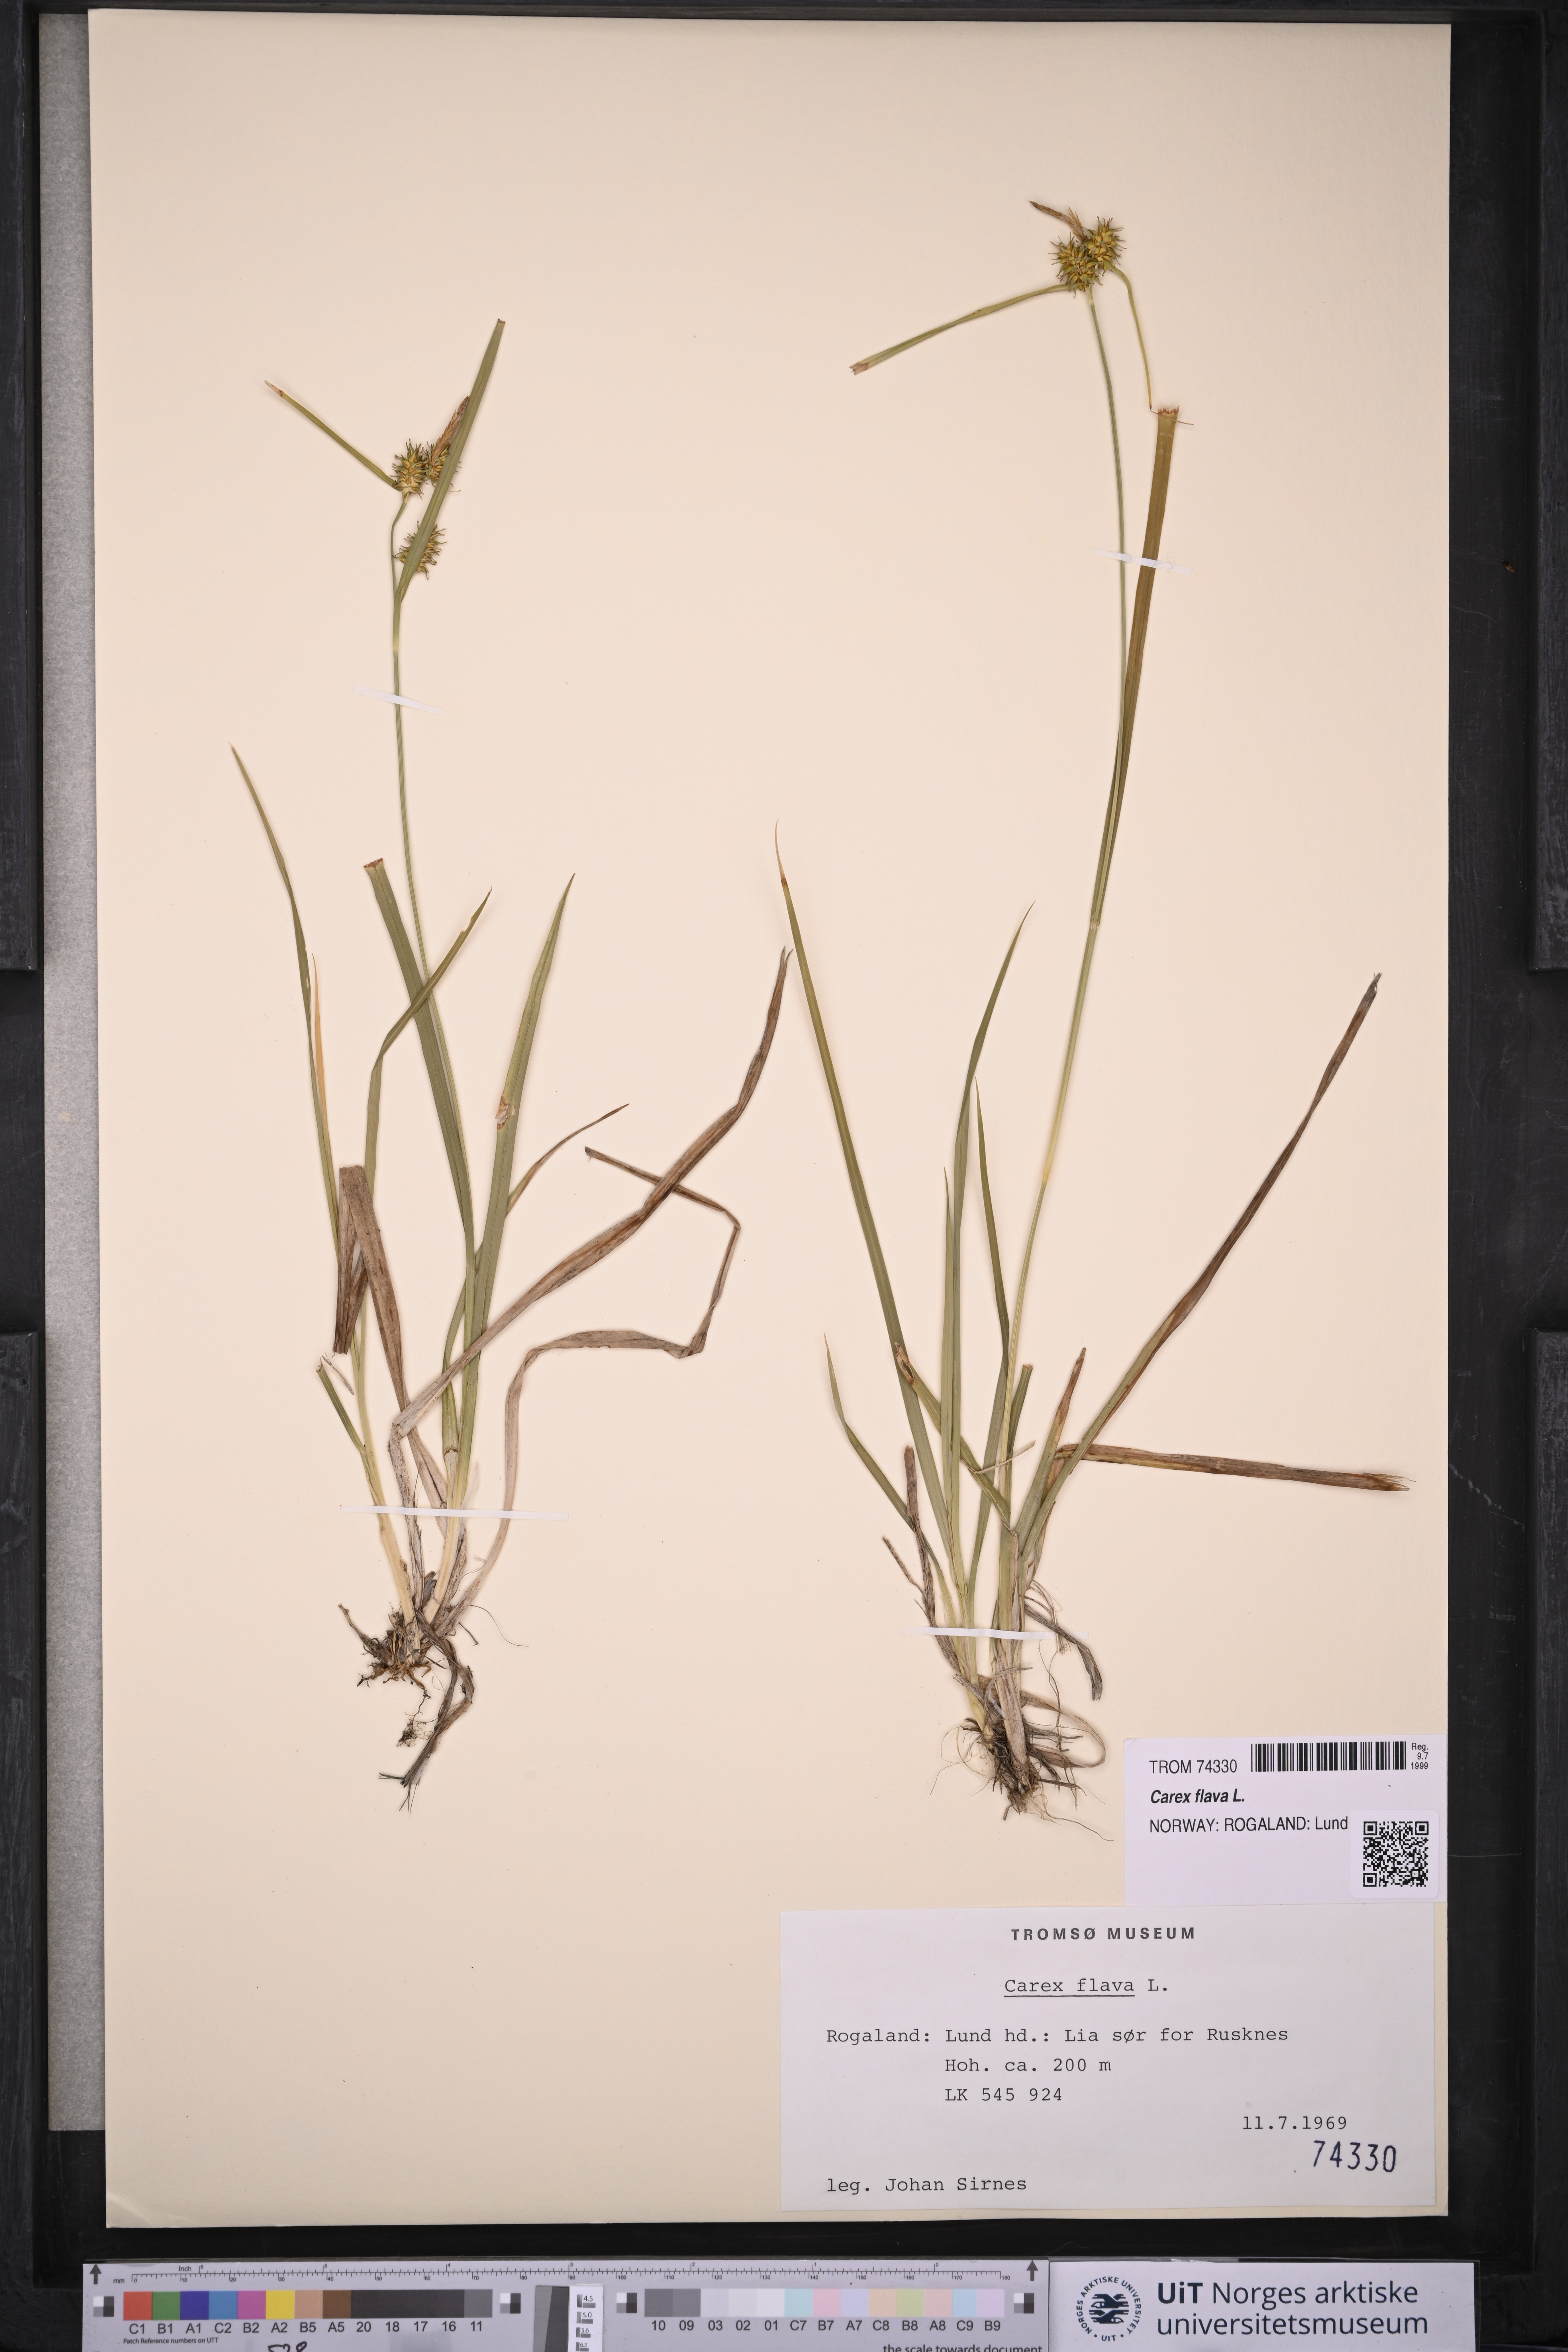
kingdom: Plantae
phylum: Tracheophyta
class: Liliopsida
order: Poales
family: Cyperaceae
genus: Carex
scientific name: Carex flava
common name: Large yellow-sedge
